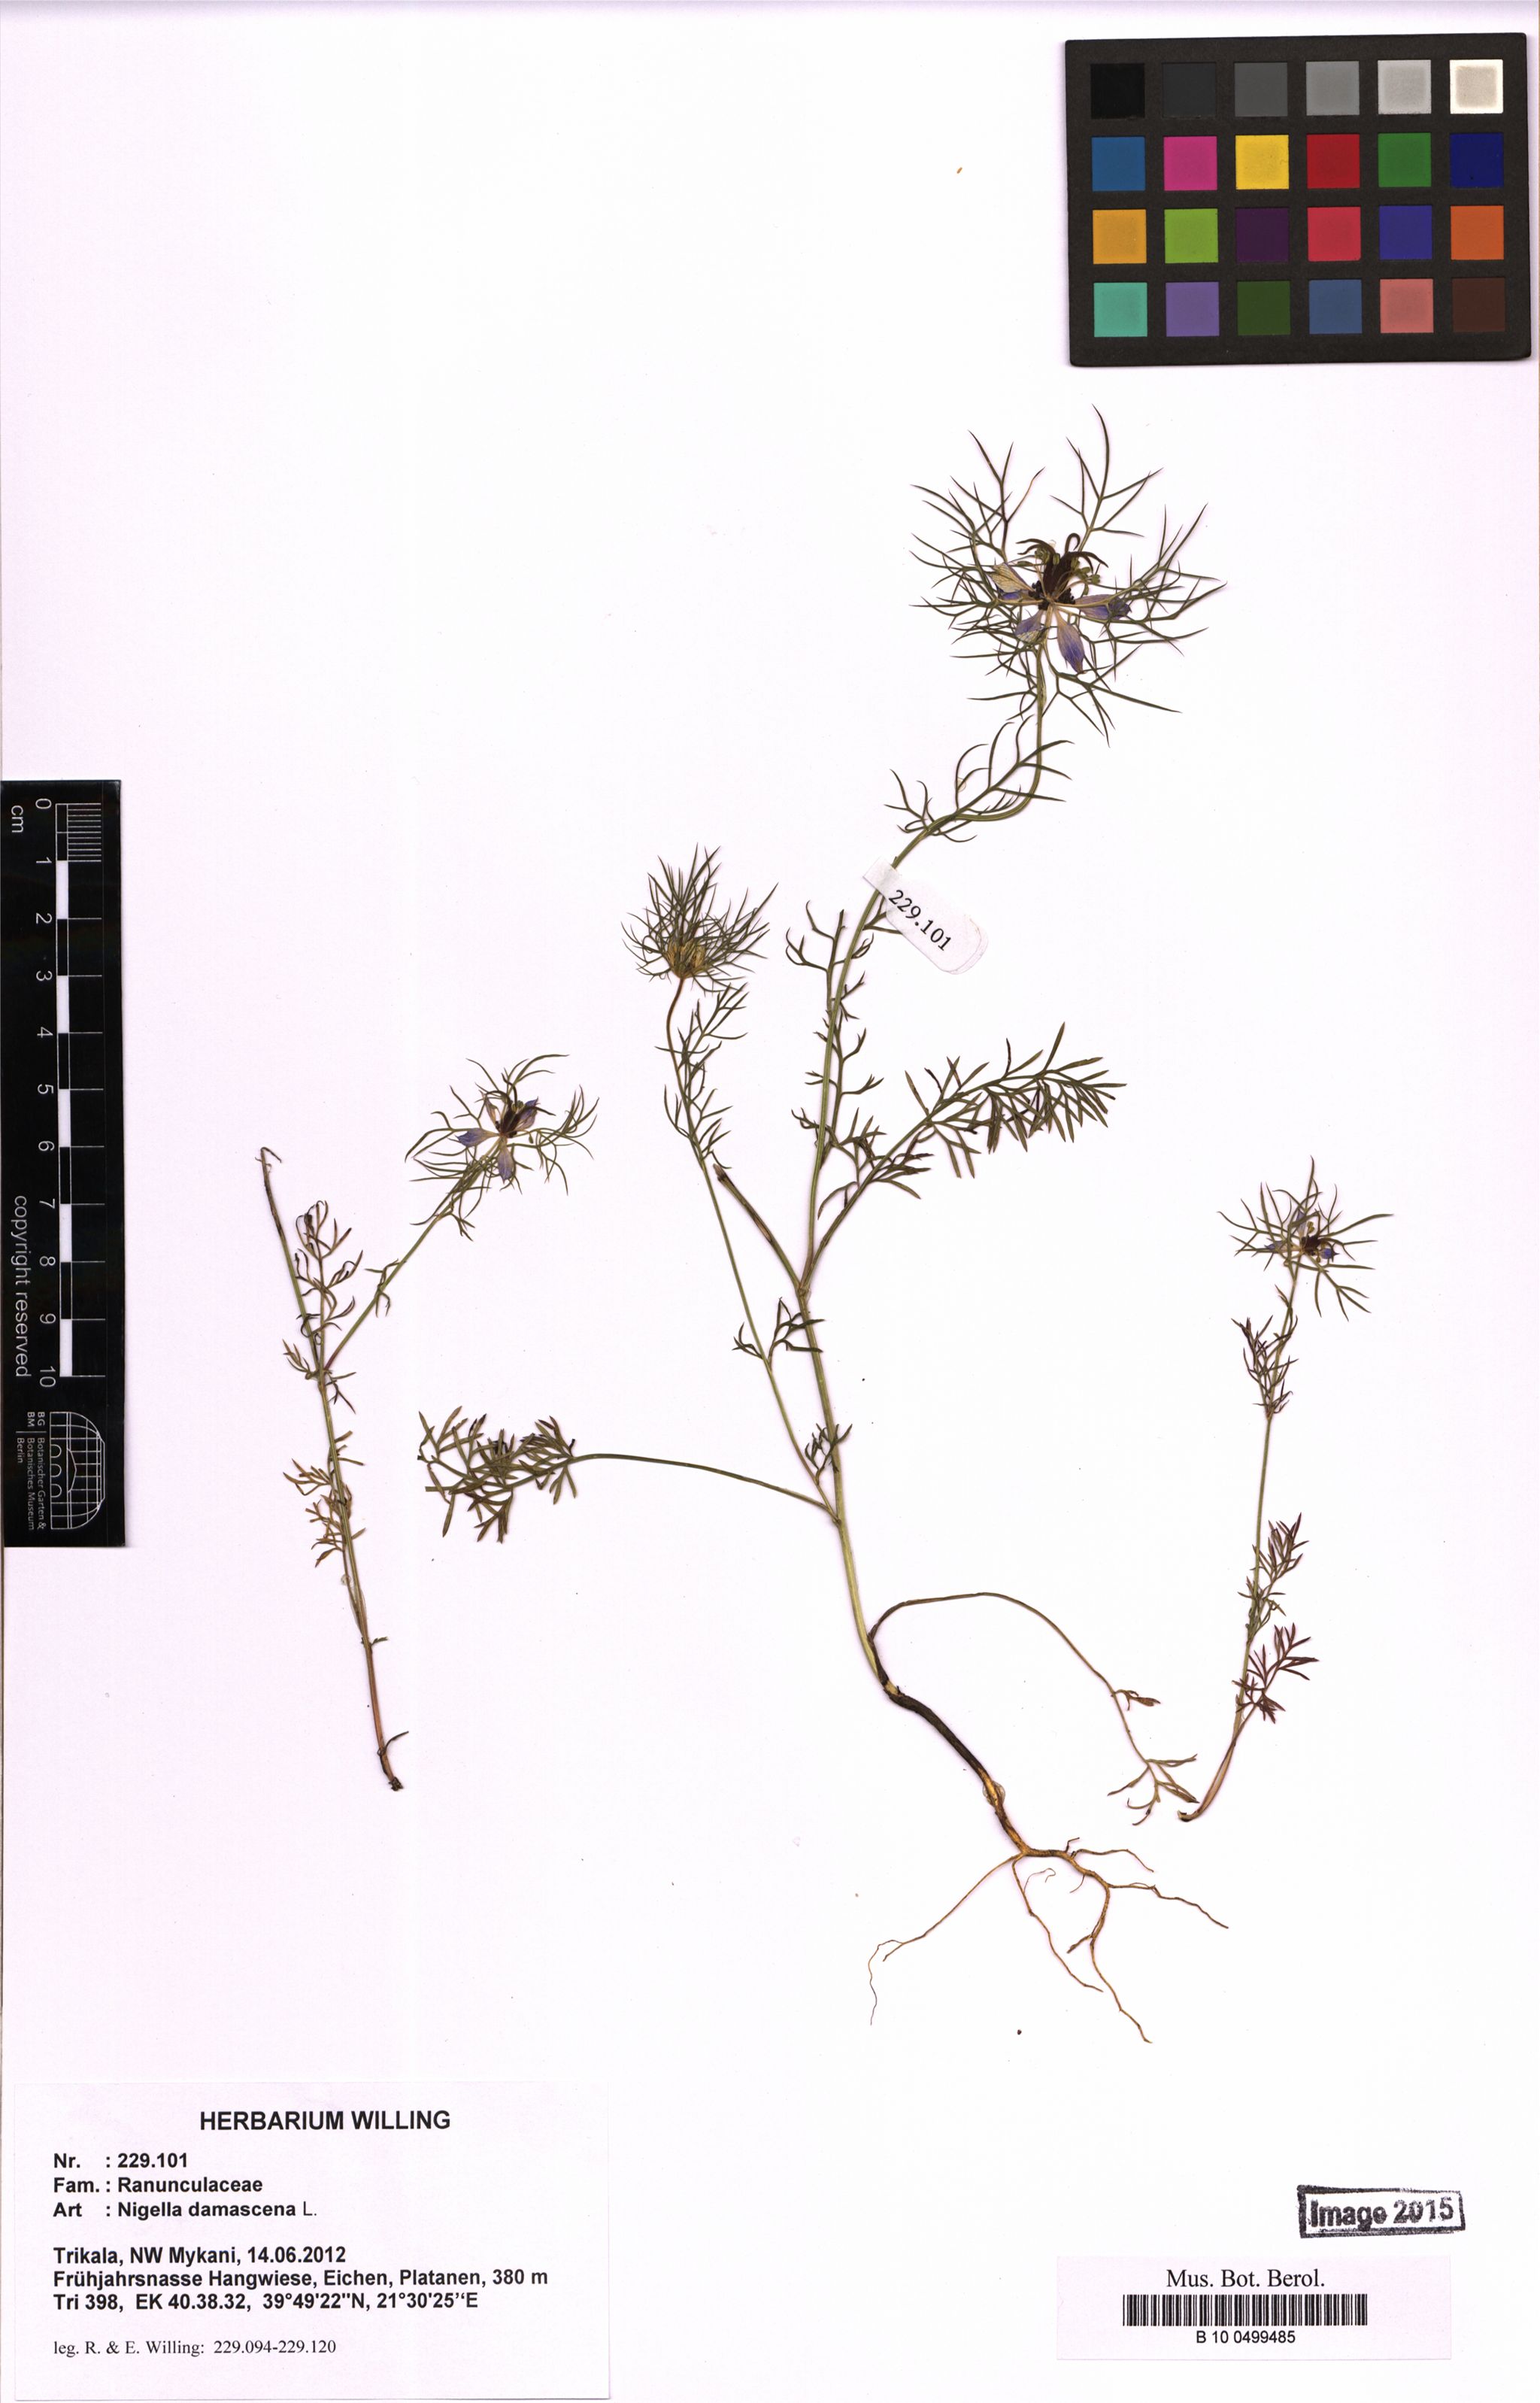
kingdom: Plantae
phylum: Tracheophyta
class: Magnoliopsida
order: Ranunculales
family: Ranunculaceae
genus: Nigella
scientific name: Nigella damascena
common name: Love-in-a-mist
